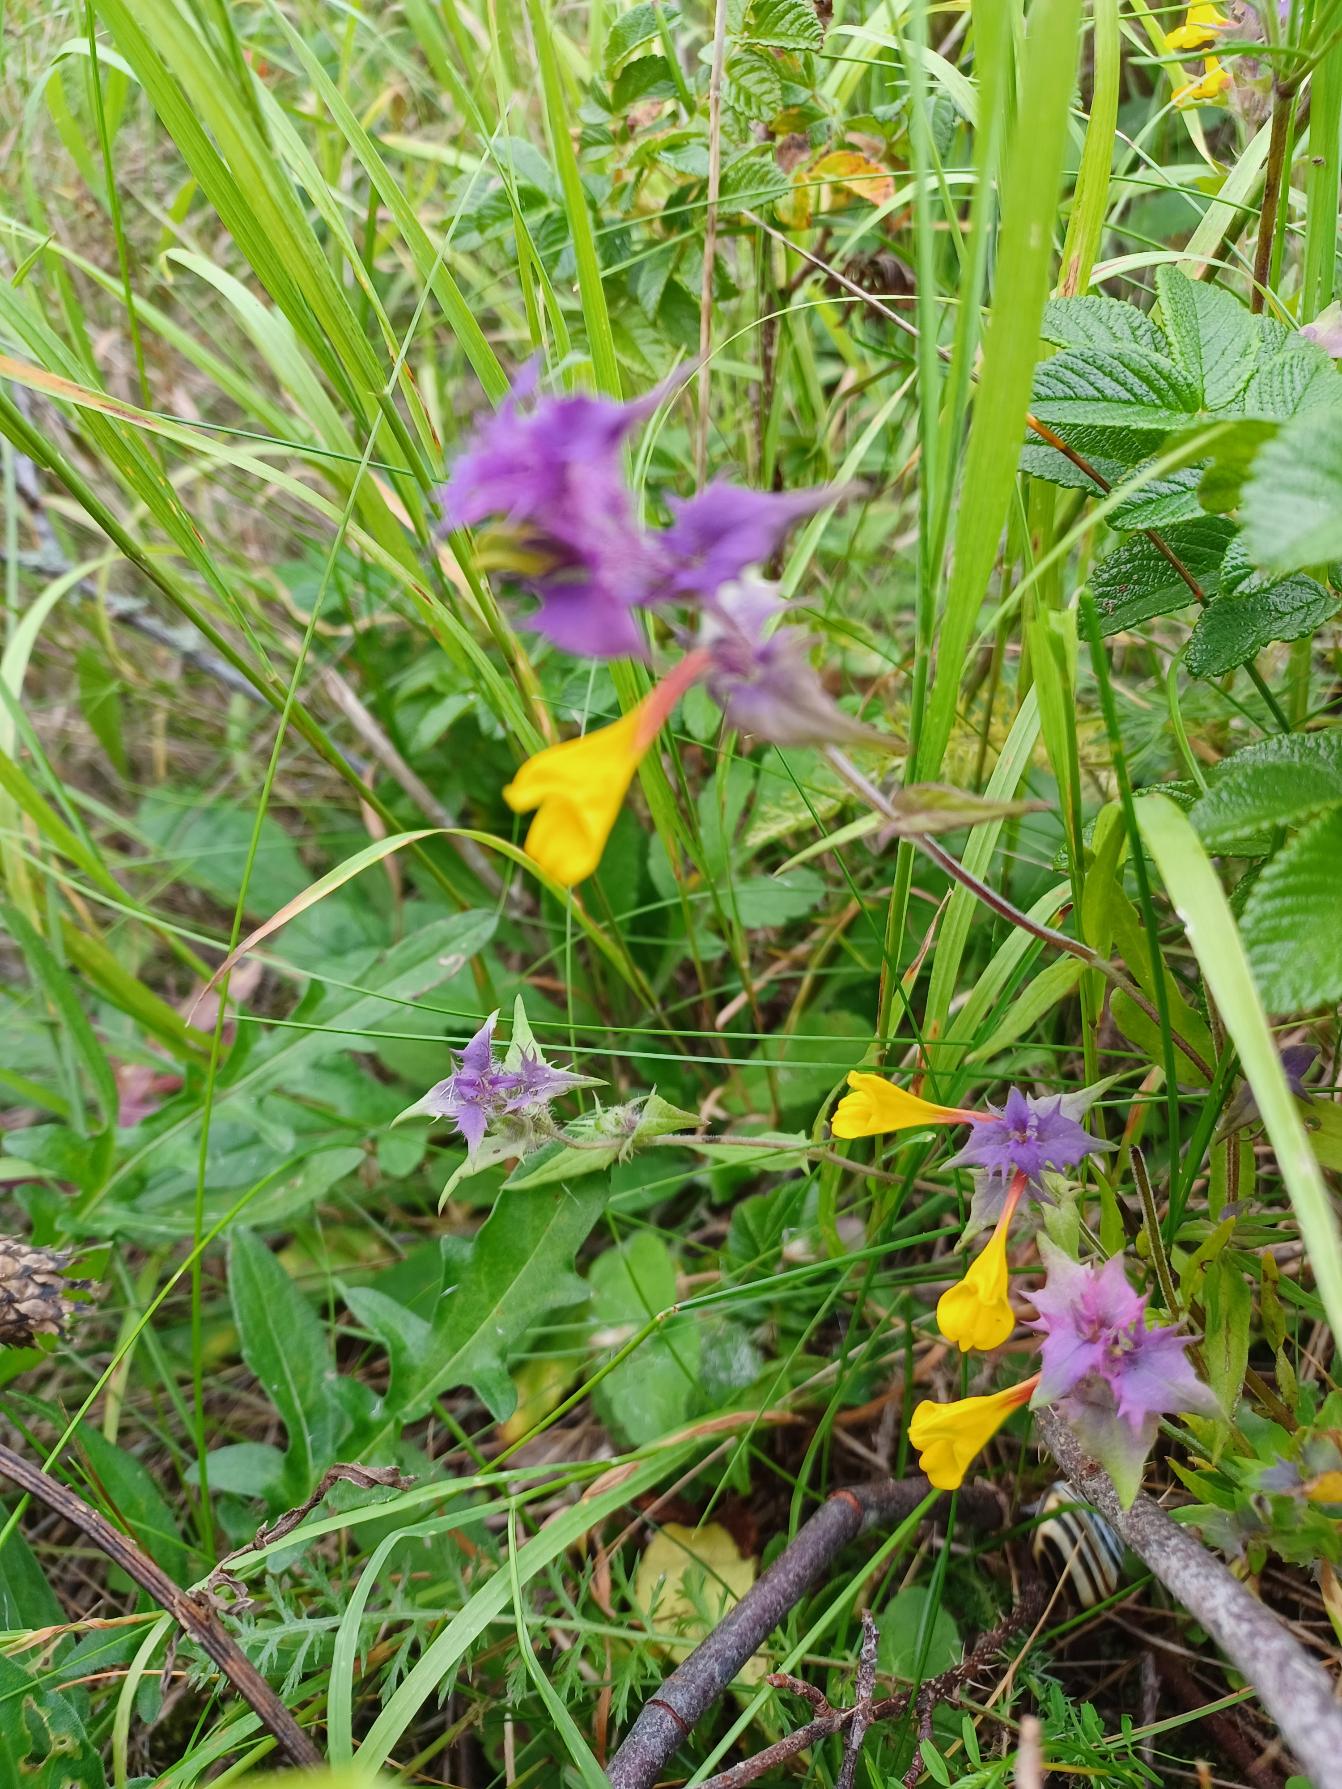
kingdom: Plantae
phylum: Tracheophyta
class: Magnoliopsida
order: Lamiales
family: Orobanchaceae
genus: Melampyrum
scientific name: Melampyrum nemorosum
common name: Blåtoppet kohvede
